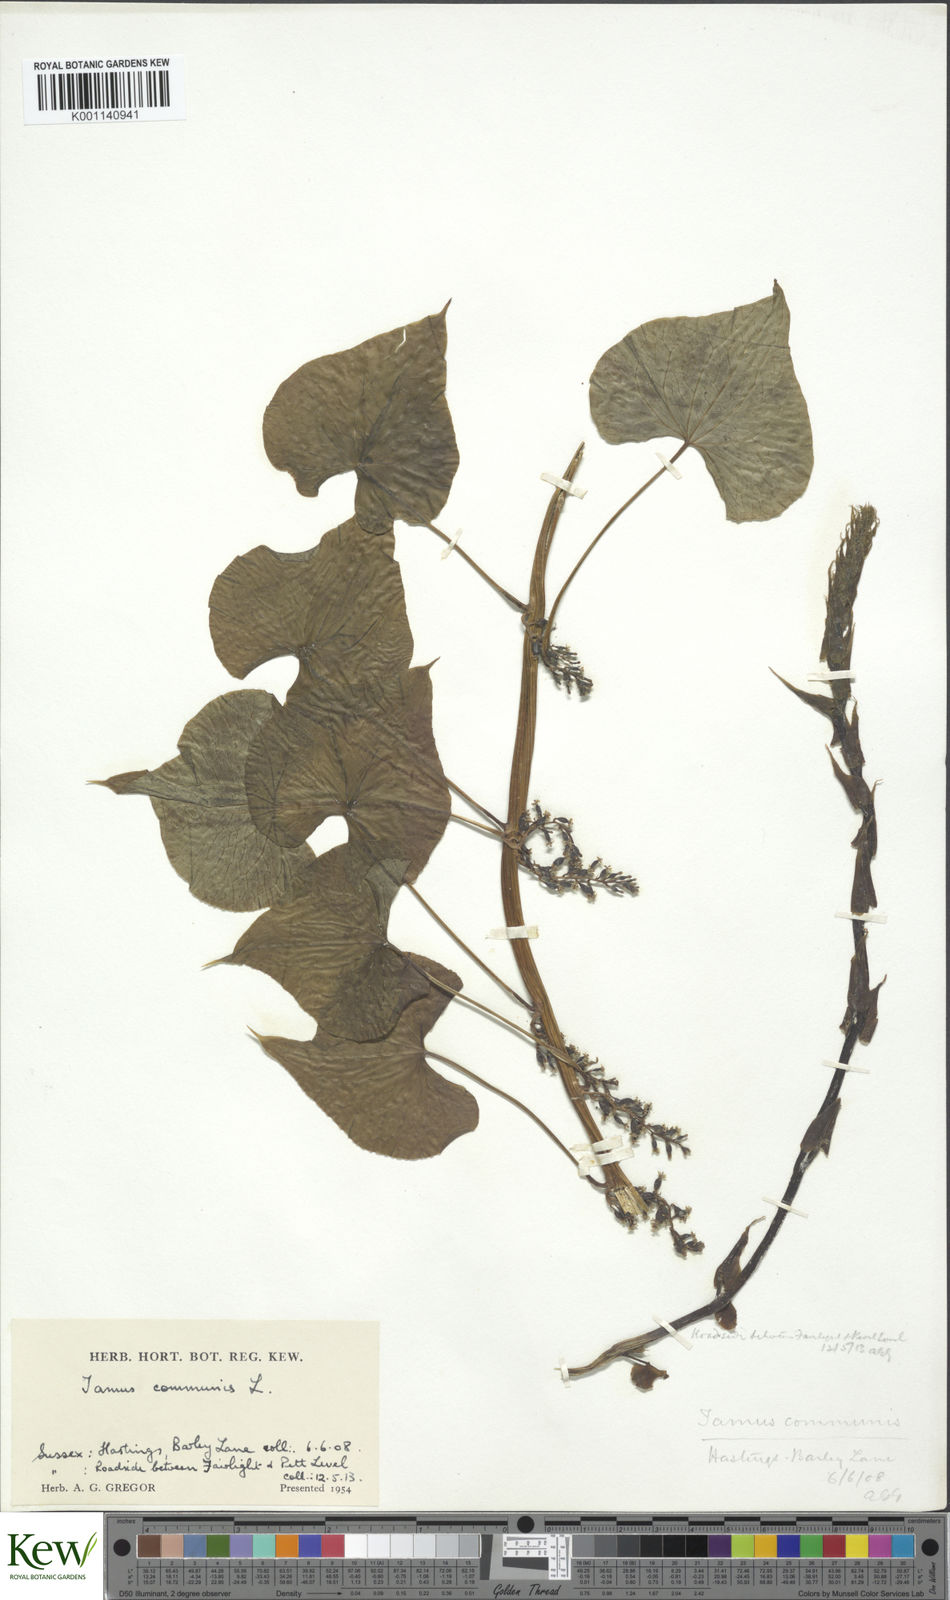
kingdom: Plantae
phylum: Tracheophyta
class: Liliopsida
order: Dioscoreales
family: Dioscoreaceae
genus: Dioscorea
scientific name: Dioscorea communis
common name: Black-bindweed
